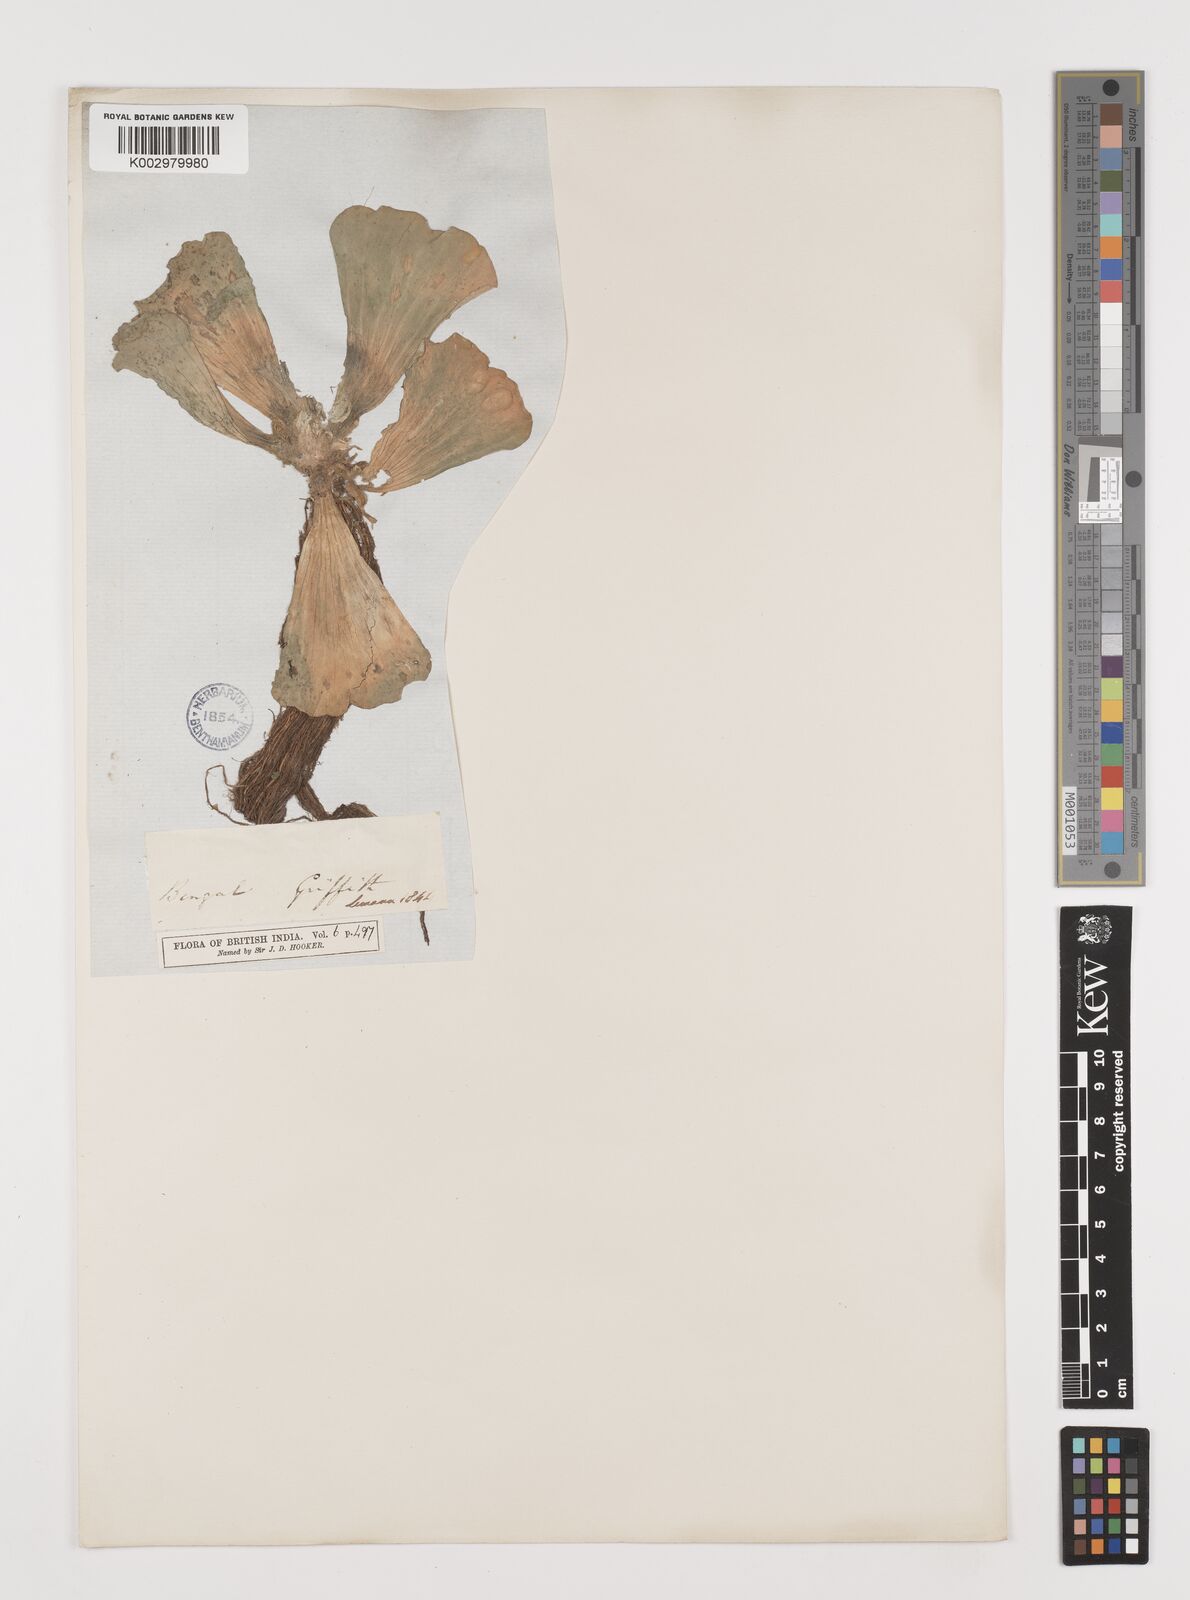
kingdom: Plantae
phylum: Tracheophyta
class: Liliopsida
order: Alismatales
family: Araceae
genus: Pistia
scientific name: Pistia stratiotes
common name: Water lettuce
